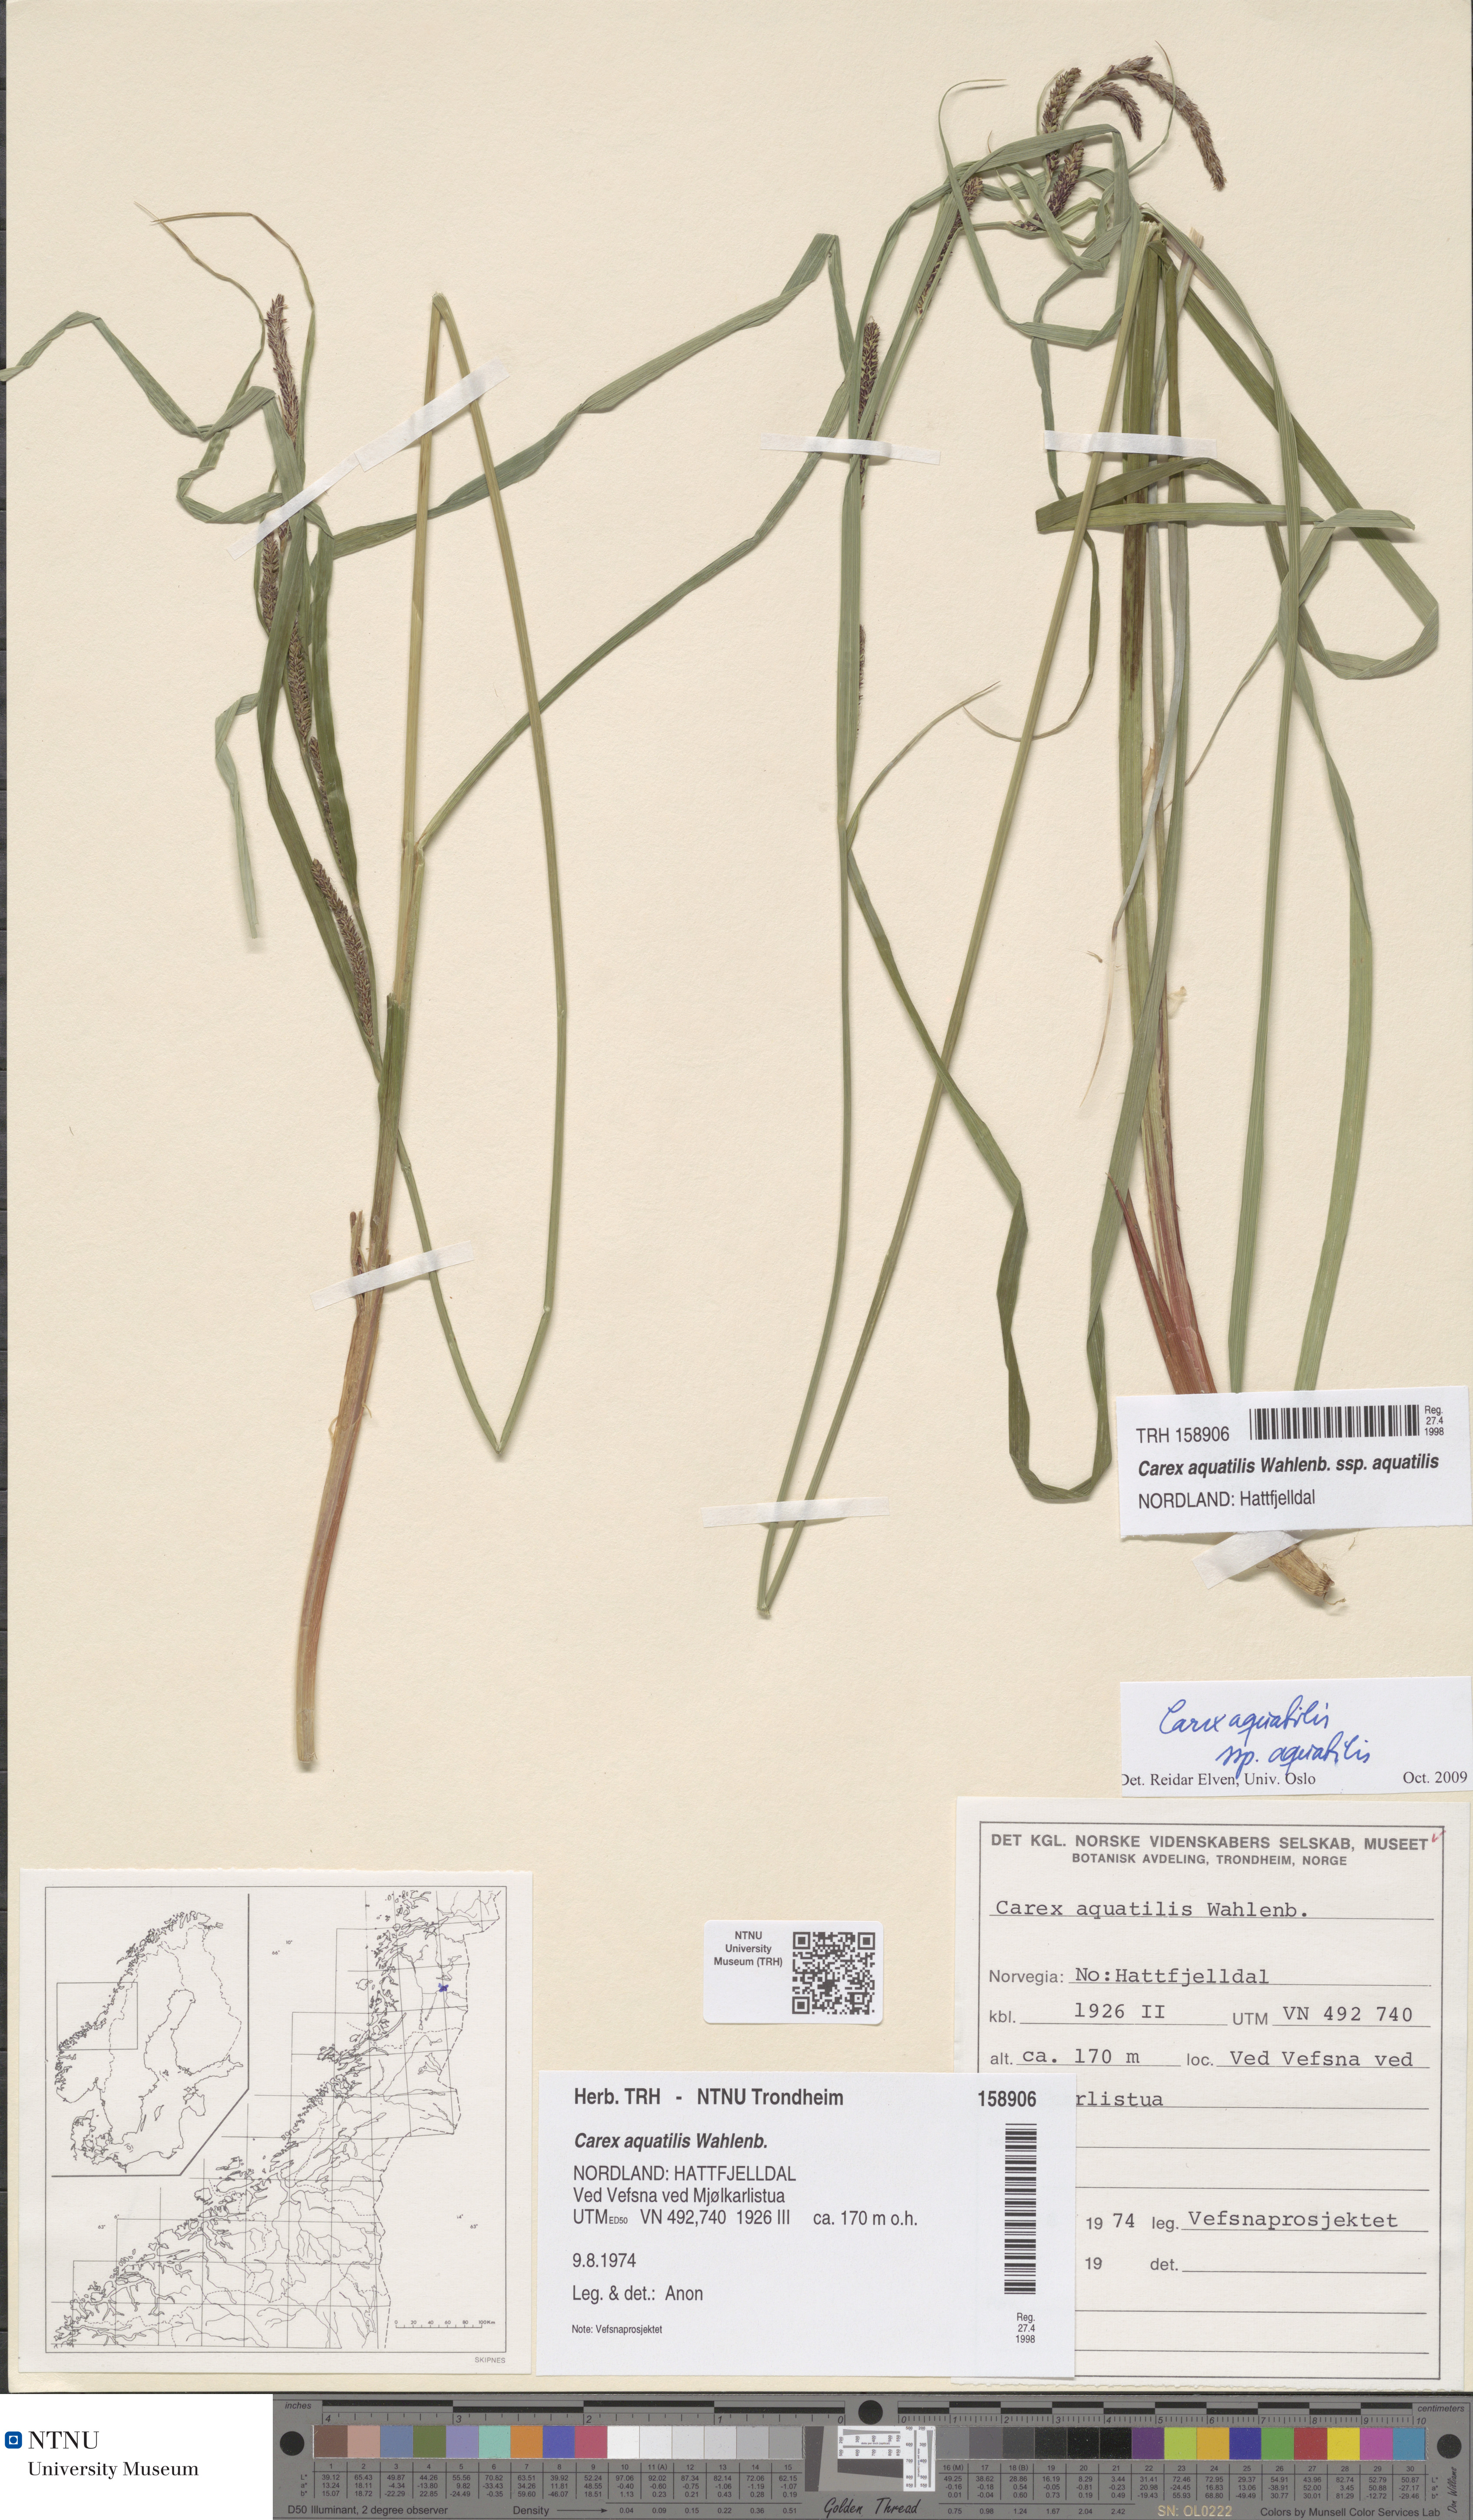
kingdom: Plantae
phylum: Tracheophyta
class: Liliopsida
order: Poales
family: Cyperaceae
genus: Carex
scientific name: Carex aquatilis
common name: Water sedge
